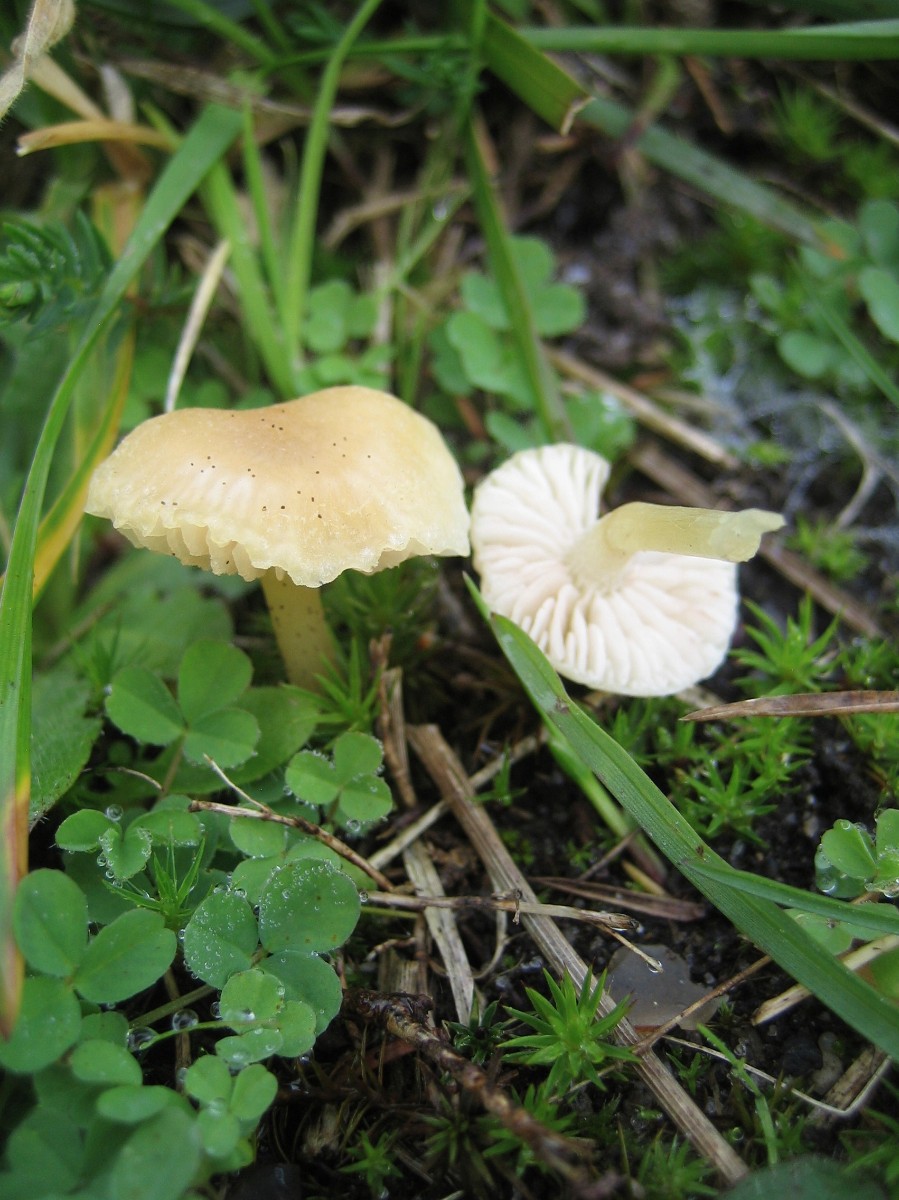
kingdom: Fungi
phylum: Basidiomycota
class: Agaricomycetes
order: Agaricales
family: Hygrophoraceae
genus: Hygrocybe
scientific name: Hygrocybe
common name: vokshat
